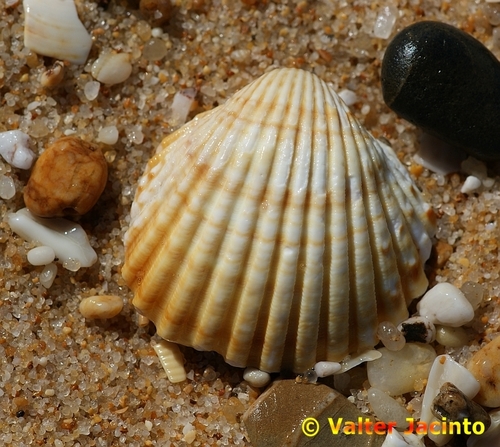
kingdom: Animalia
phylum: Mollusca
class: Bivalvia
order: Cardiida
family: Cardiidae
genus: Acanthocardia
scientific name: Acanthocardia tuberculata
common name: Rough cockle
